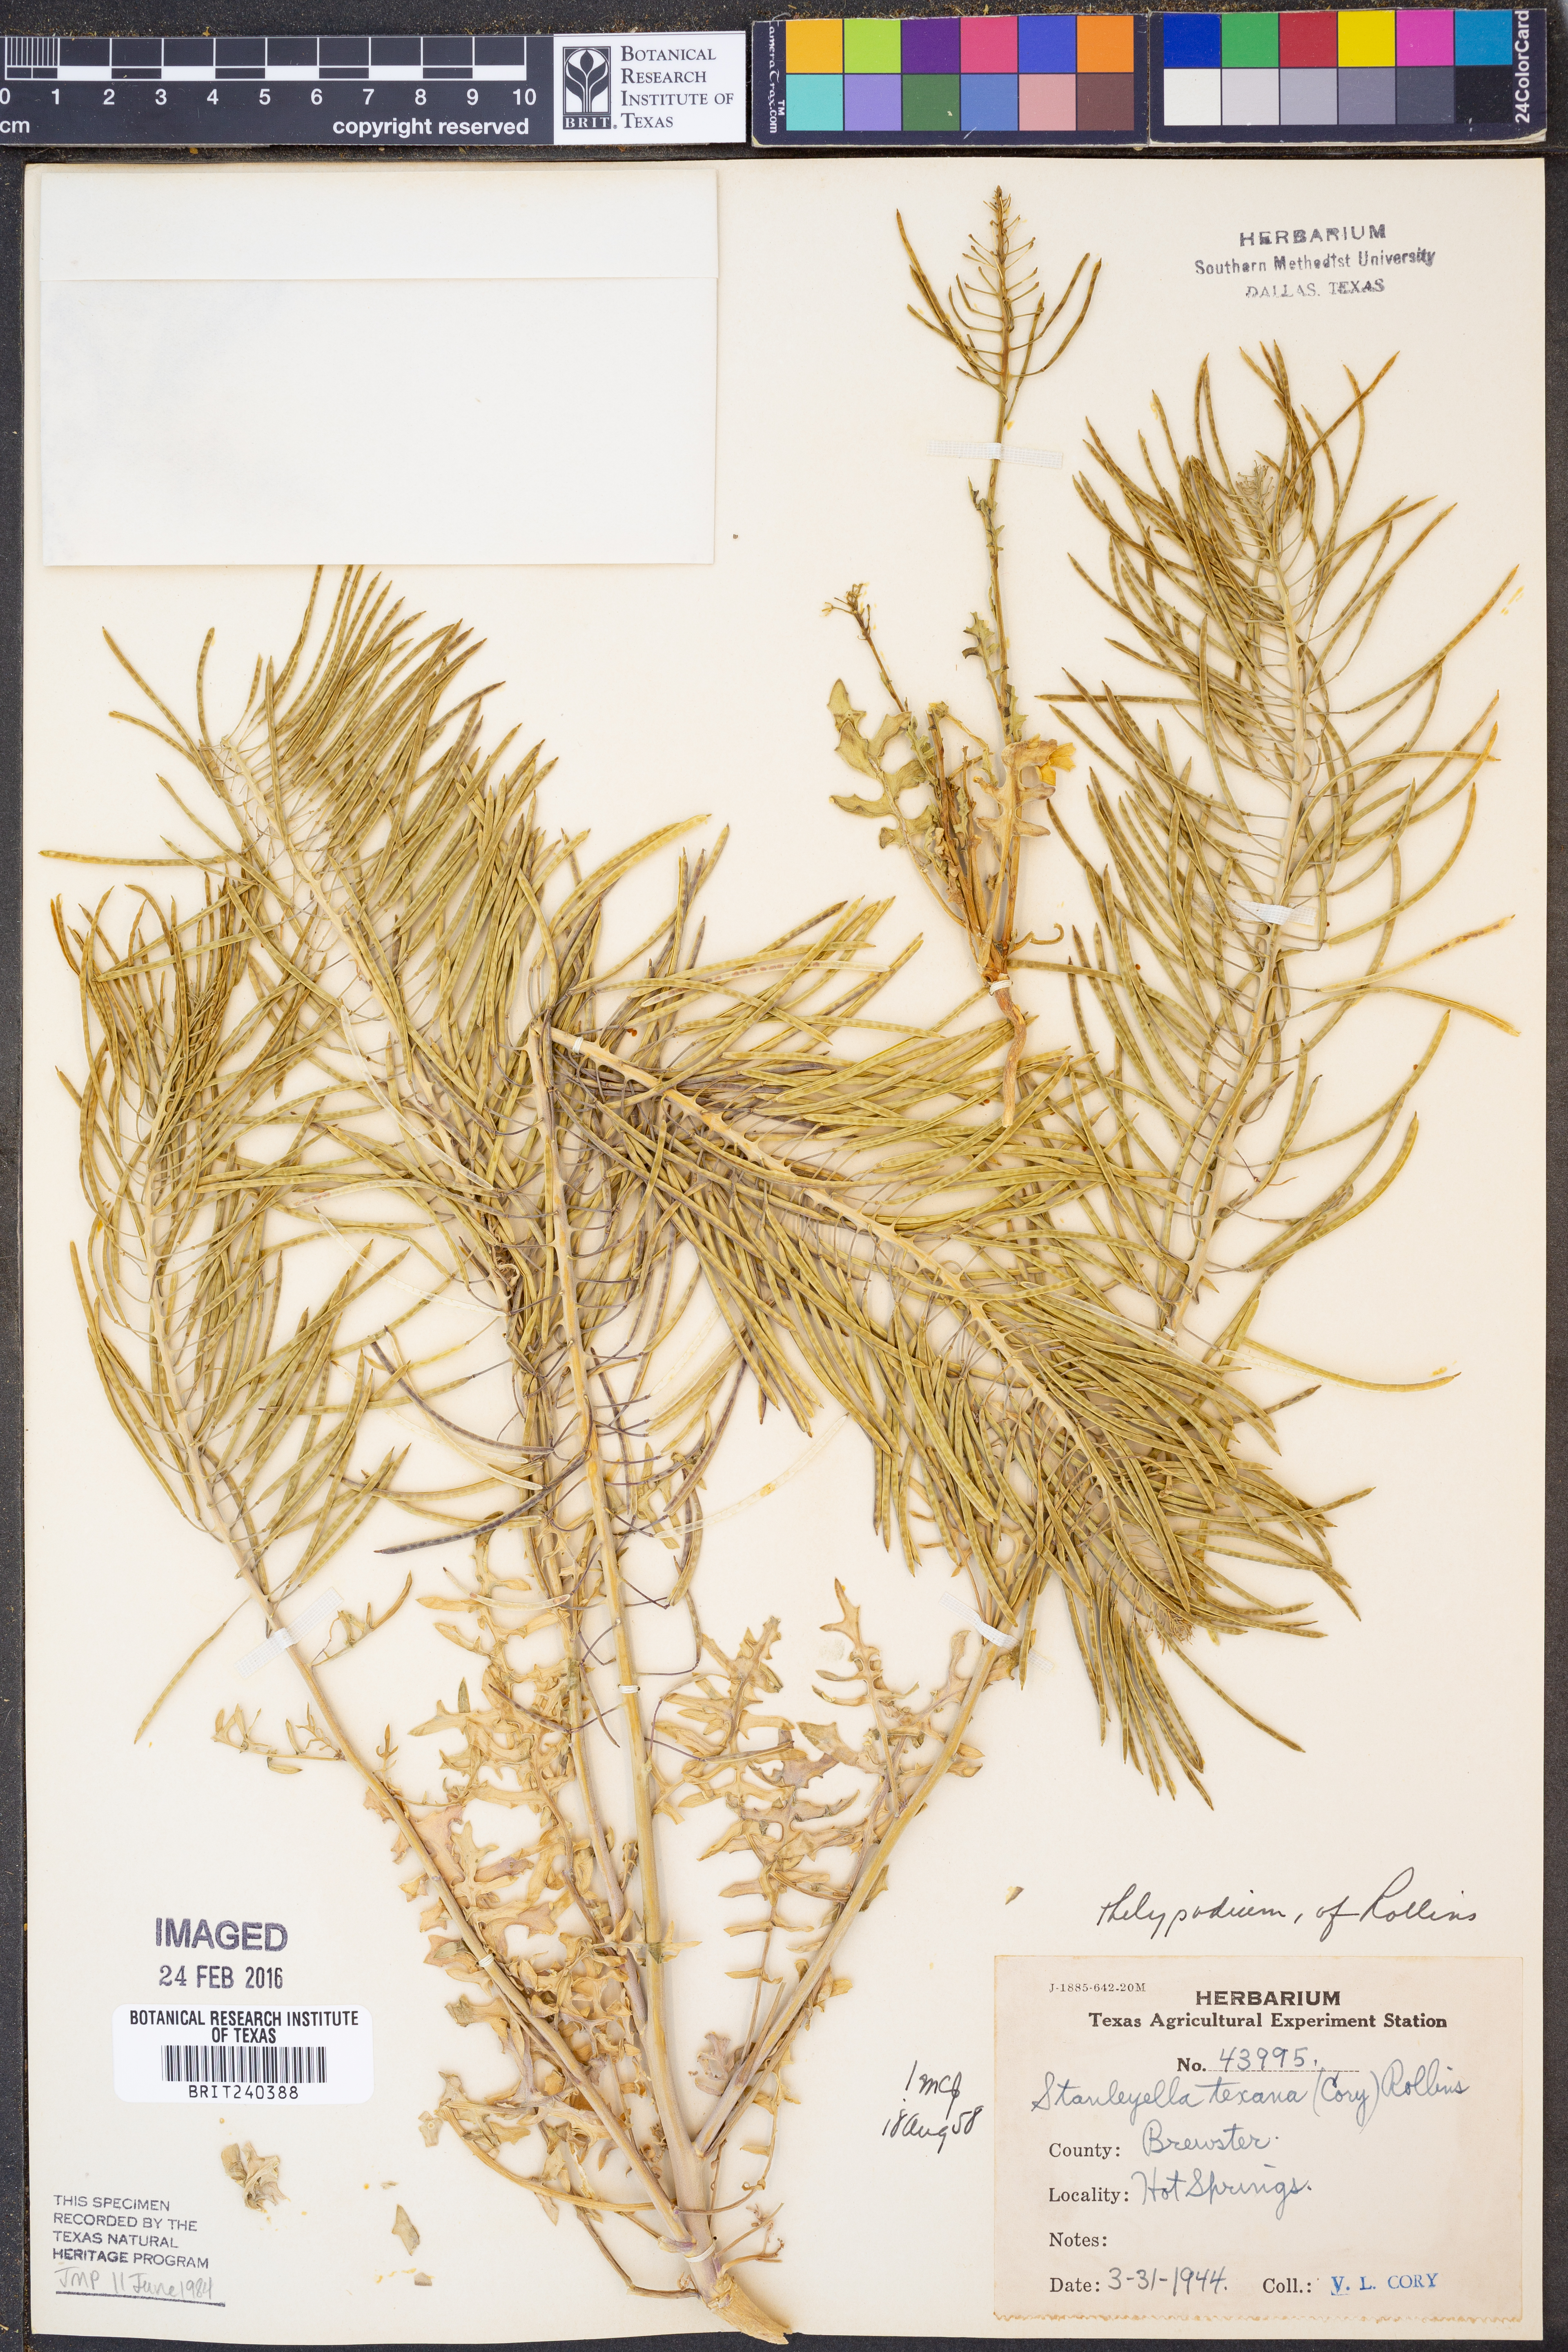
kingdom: Plantae
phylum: Tracheophyta
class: Magnoliopsida
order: Brassicales
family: Brassicaceae
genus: Thelypodium
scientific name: Thelypodium texanum
